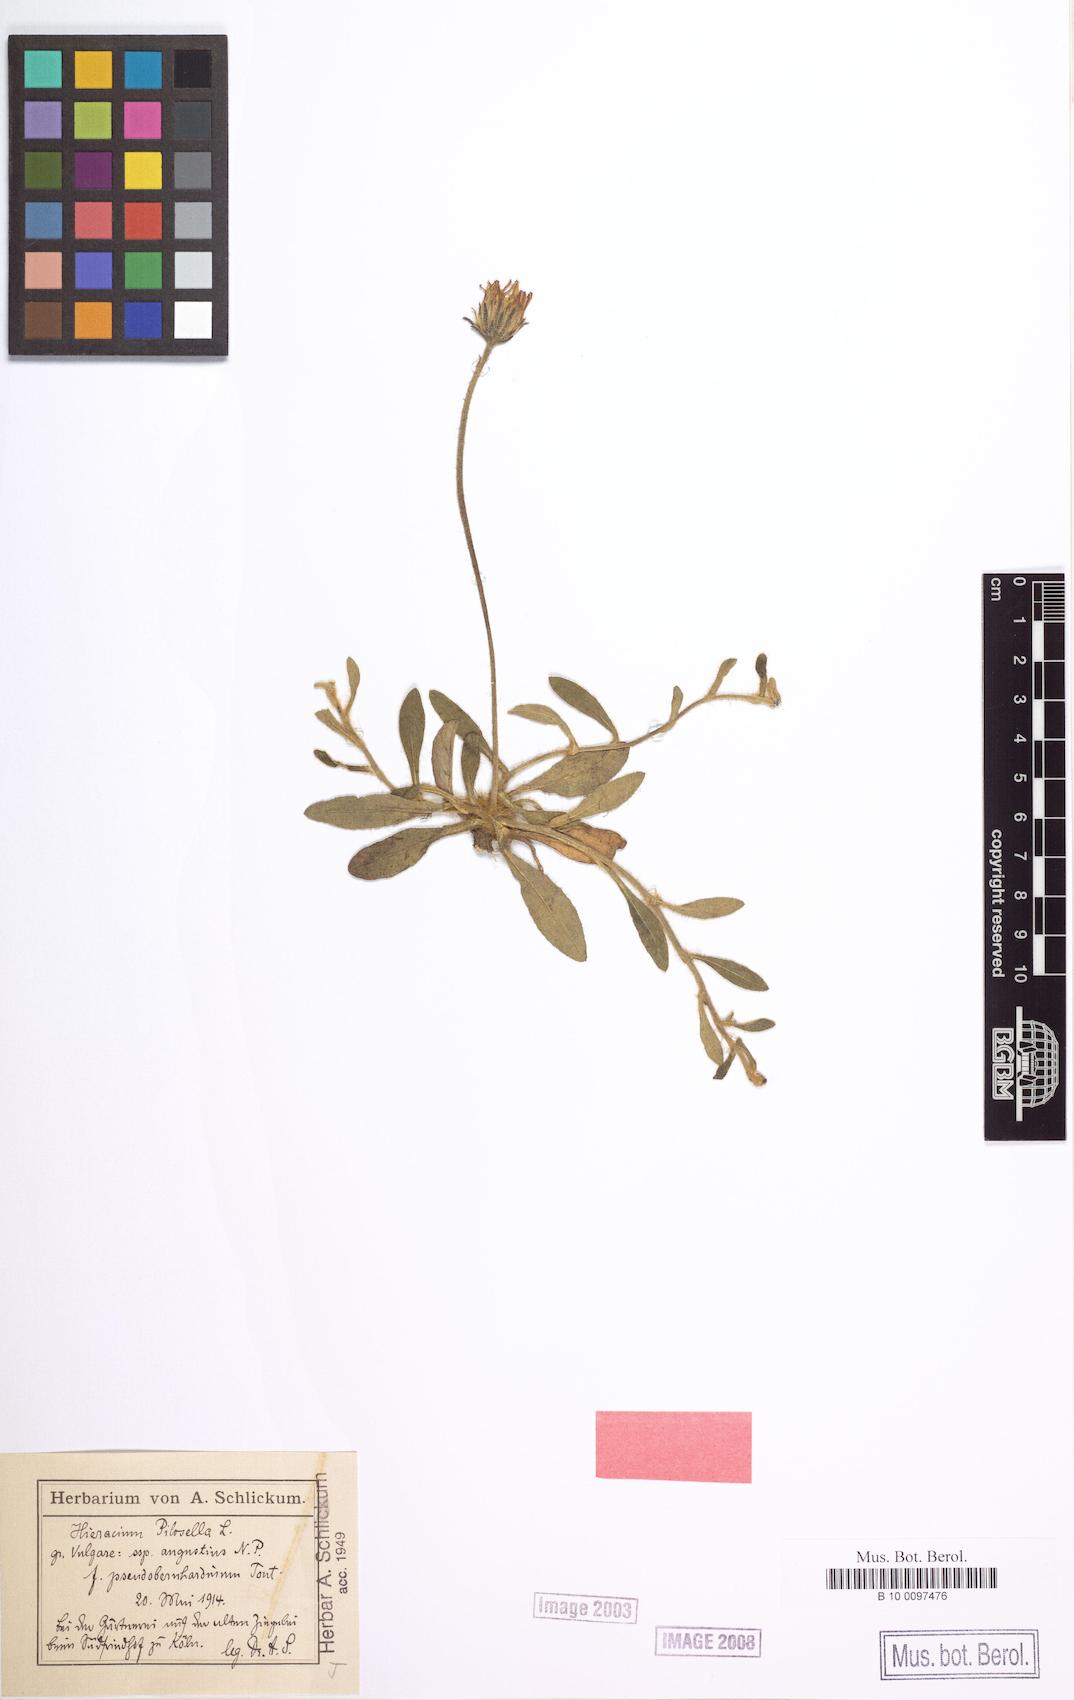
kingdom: Plantae
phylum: Tracheophyta
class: Magnoliopsida
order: Asterales
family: Asteraceae
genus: Pilosella
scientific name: Pilosella officinarum
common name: Mouse-ear hawkweed
